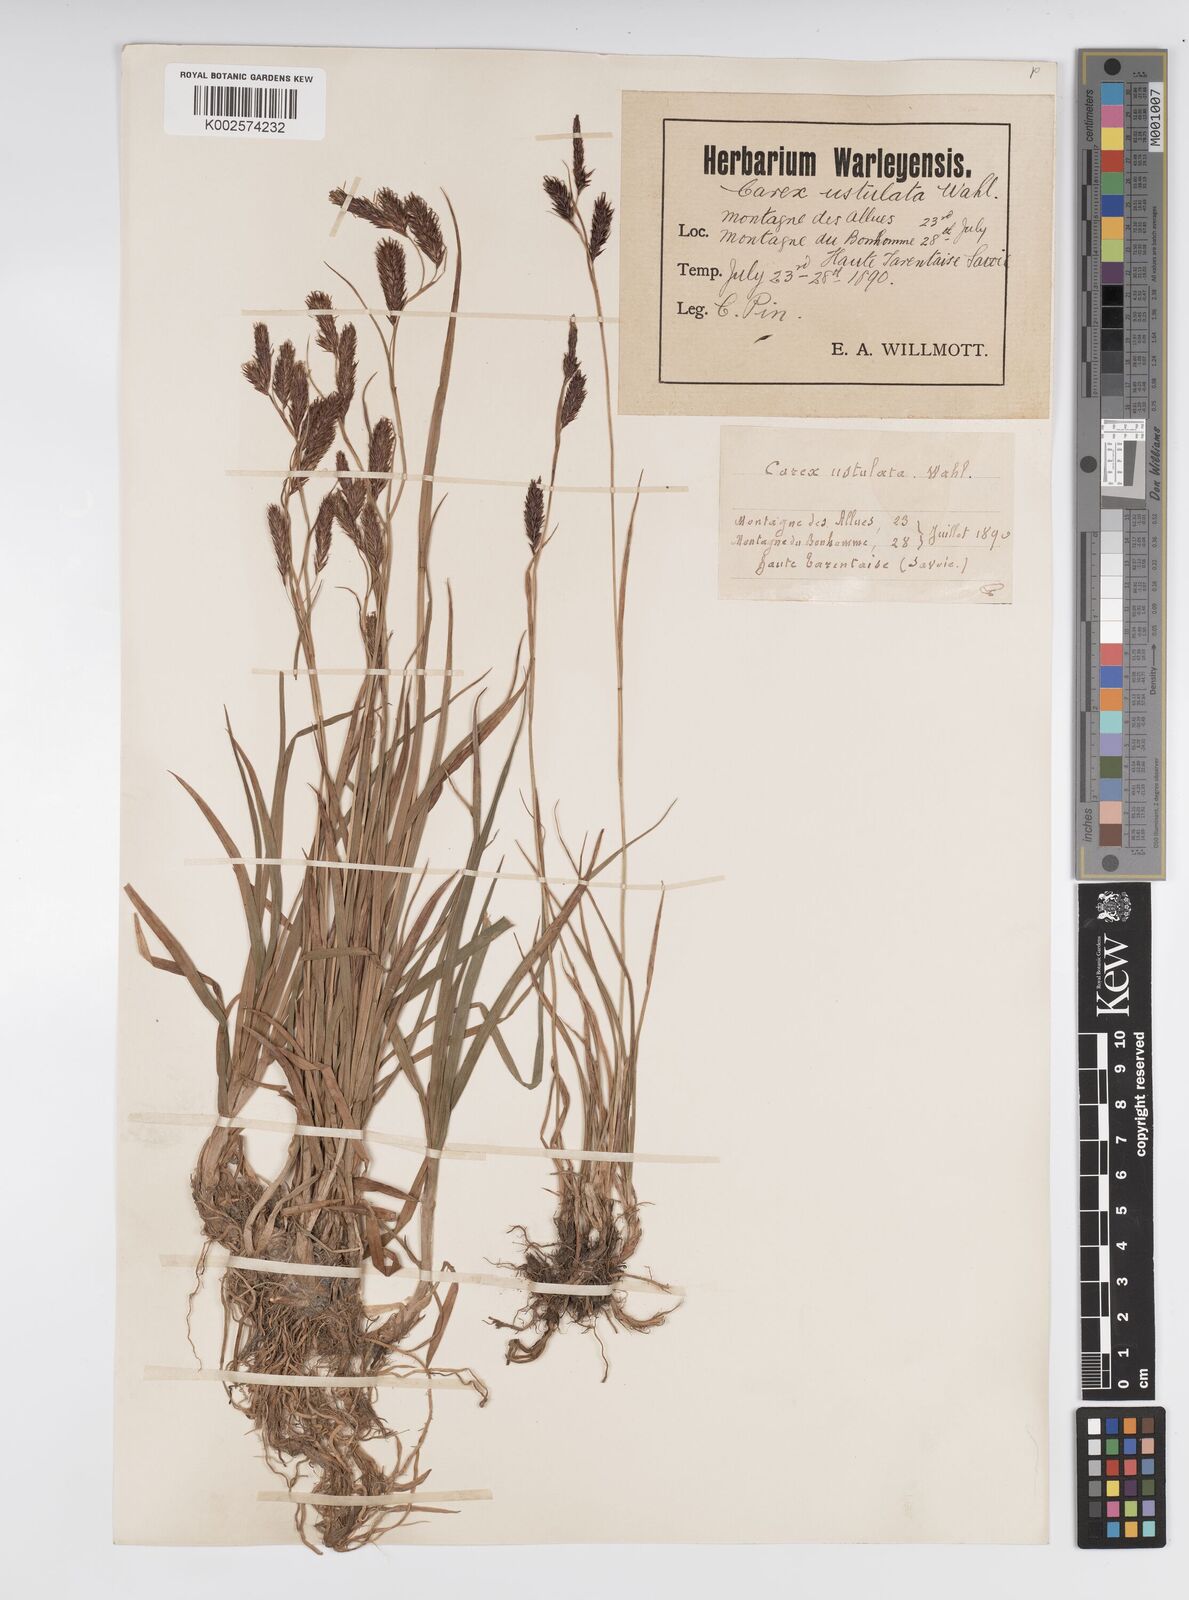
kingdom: Plantae
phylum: Tracheophyta
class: Liliopsida
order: Poales
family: Cyperaceae
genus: Carex
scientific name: Carex frigida
